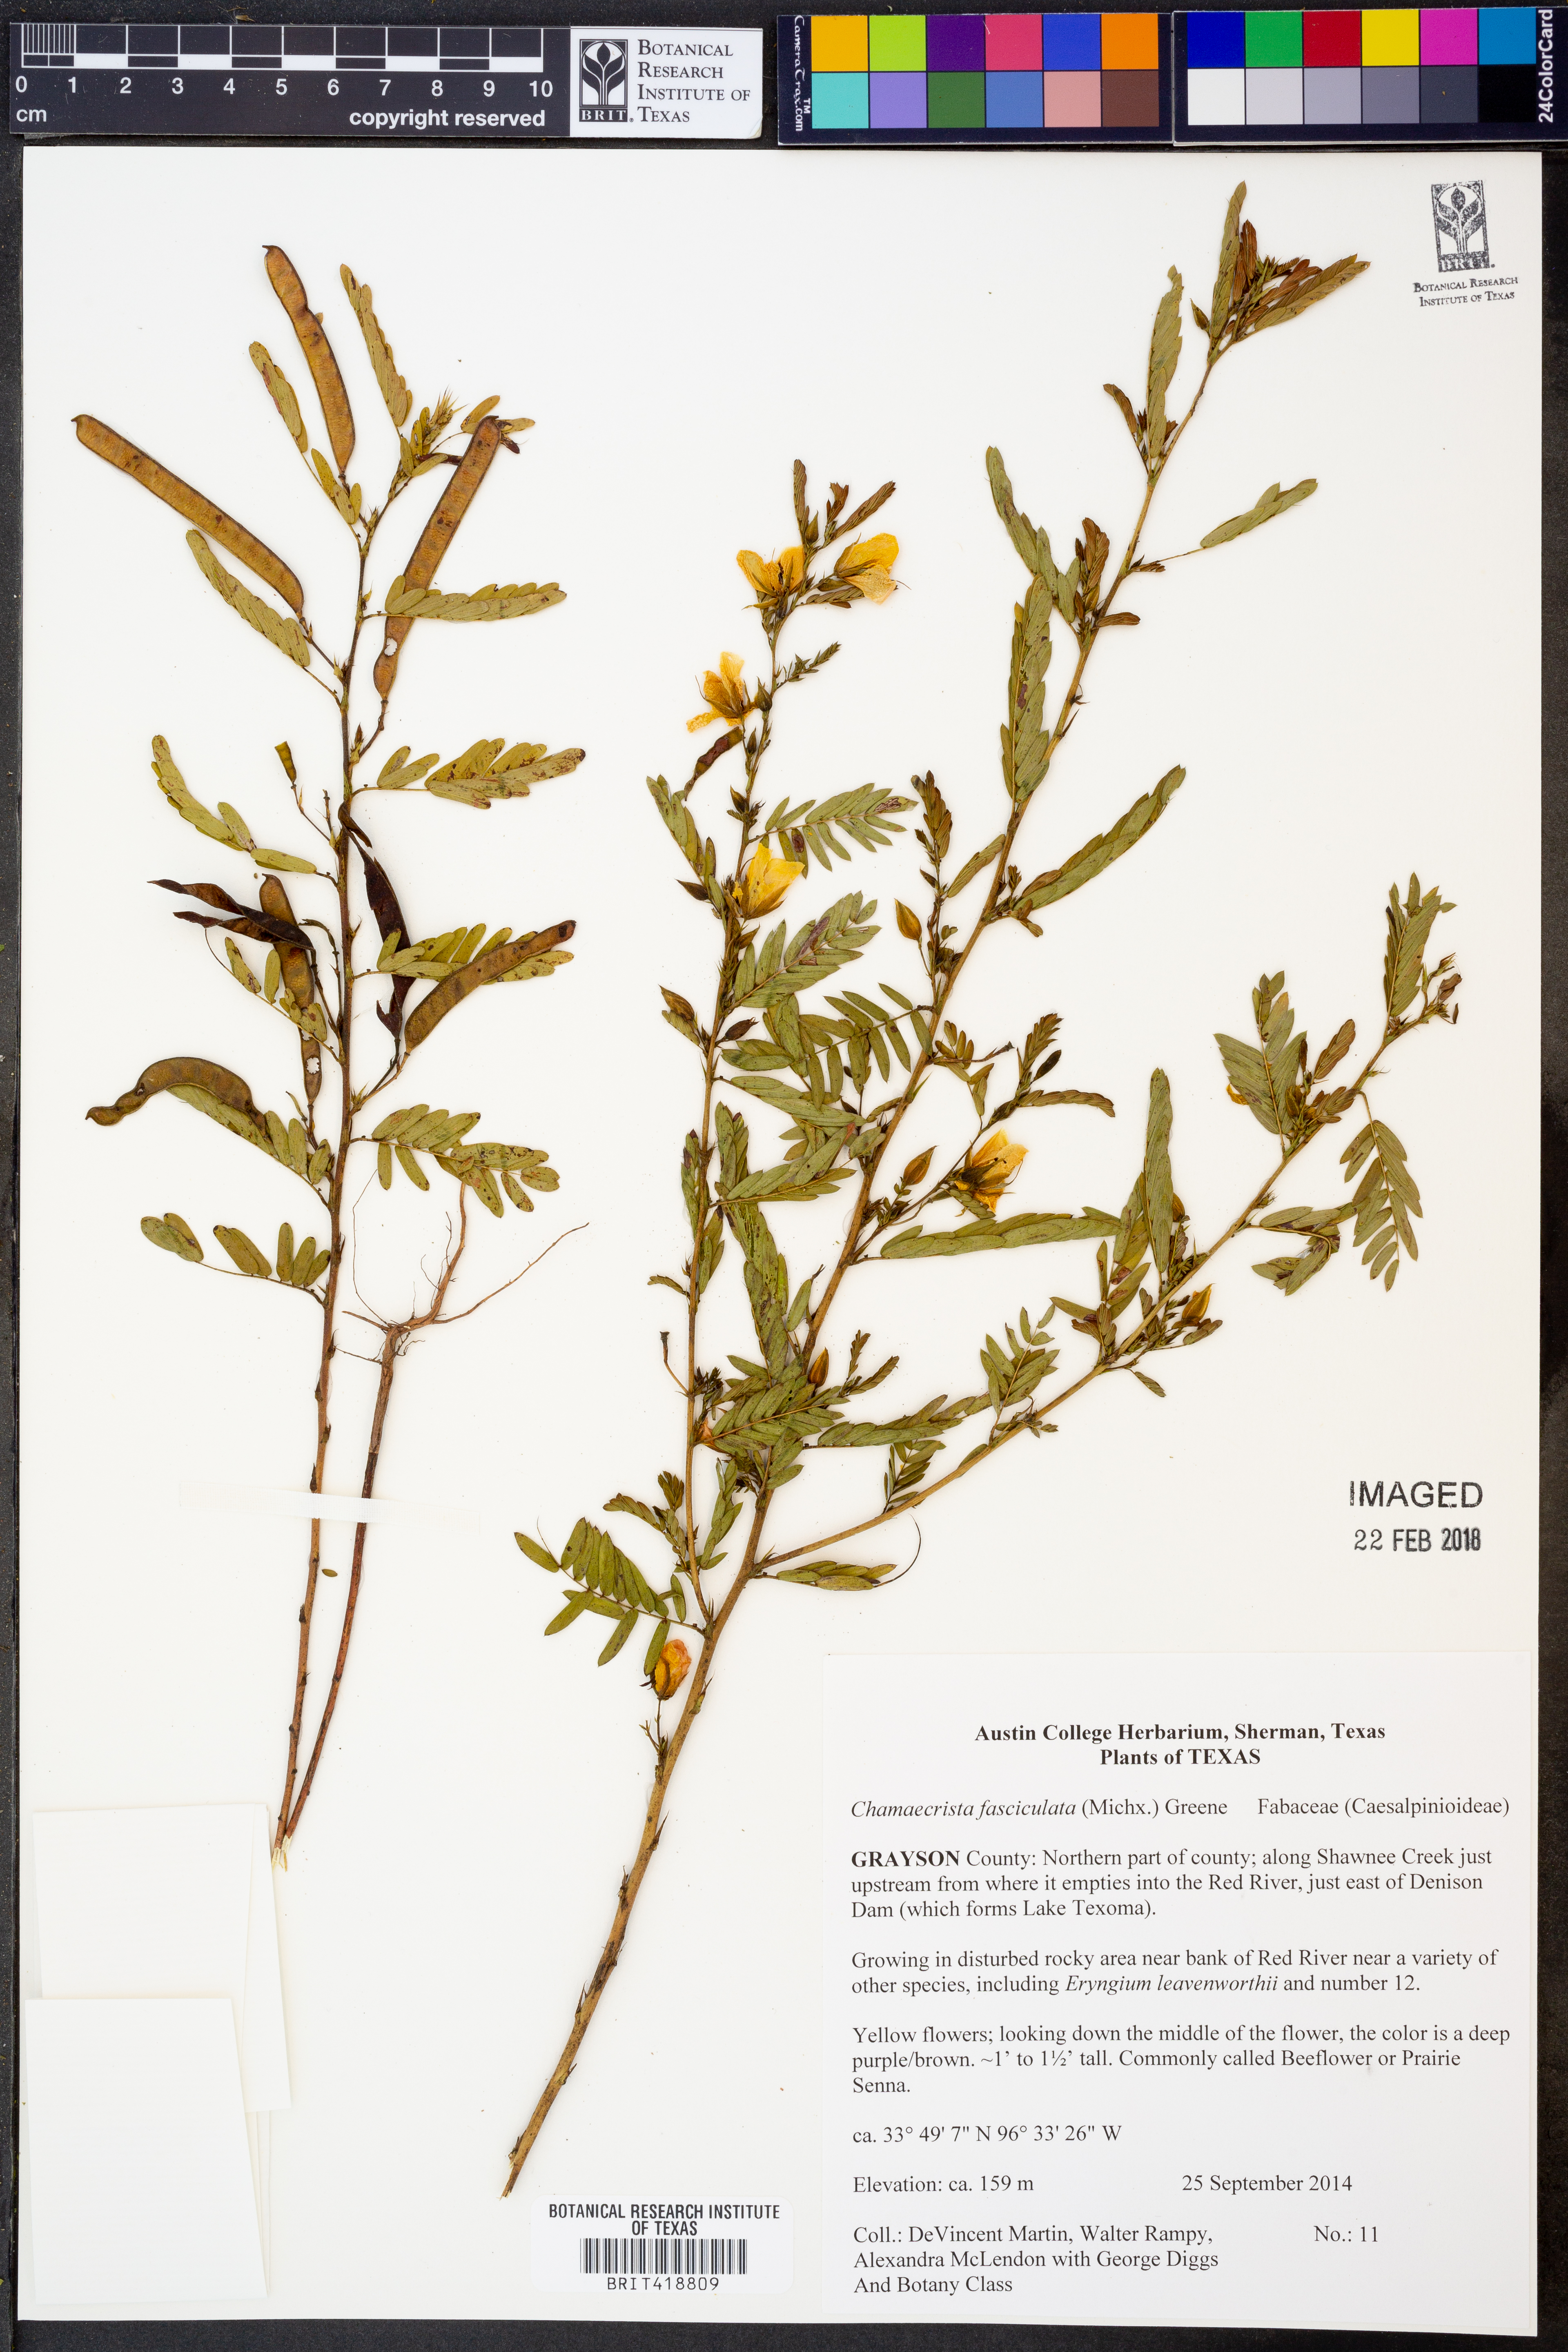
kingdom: Plantae
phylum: Tracheophyta
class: Magnoliopsida
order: Fabales
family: Fabaceae
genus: Chamaecrista
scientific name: Chamaecrista fasciculata
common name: Golden cassia
